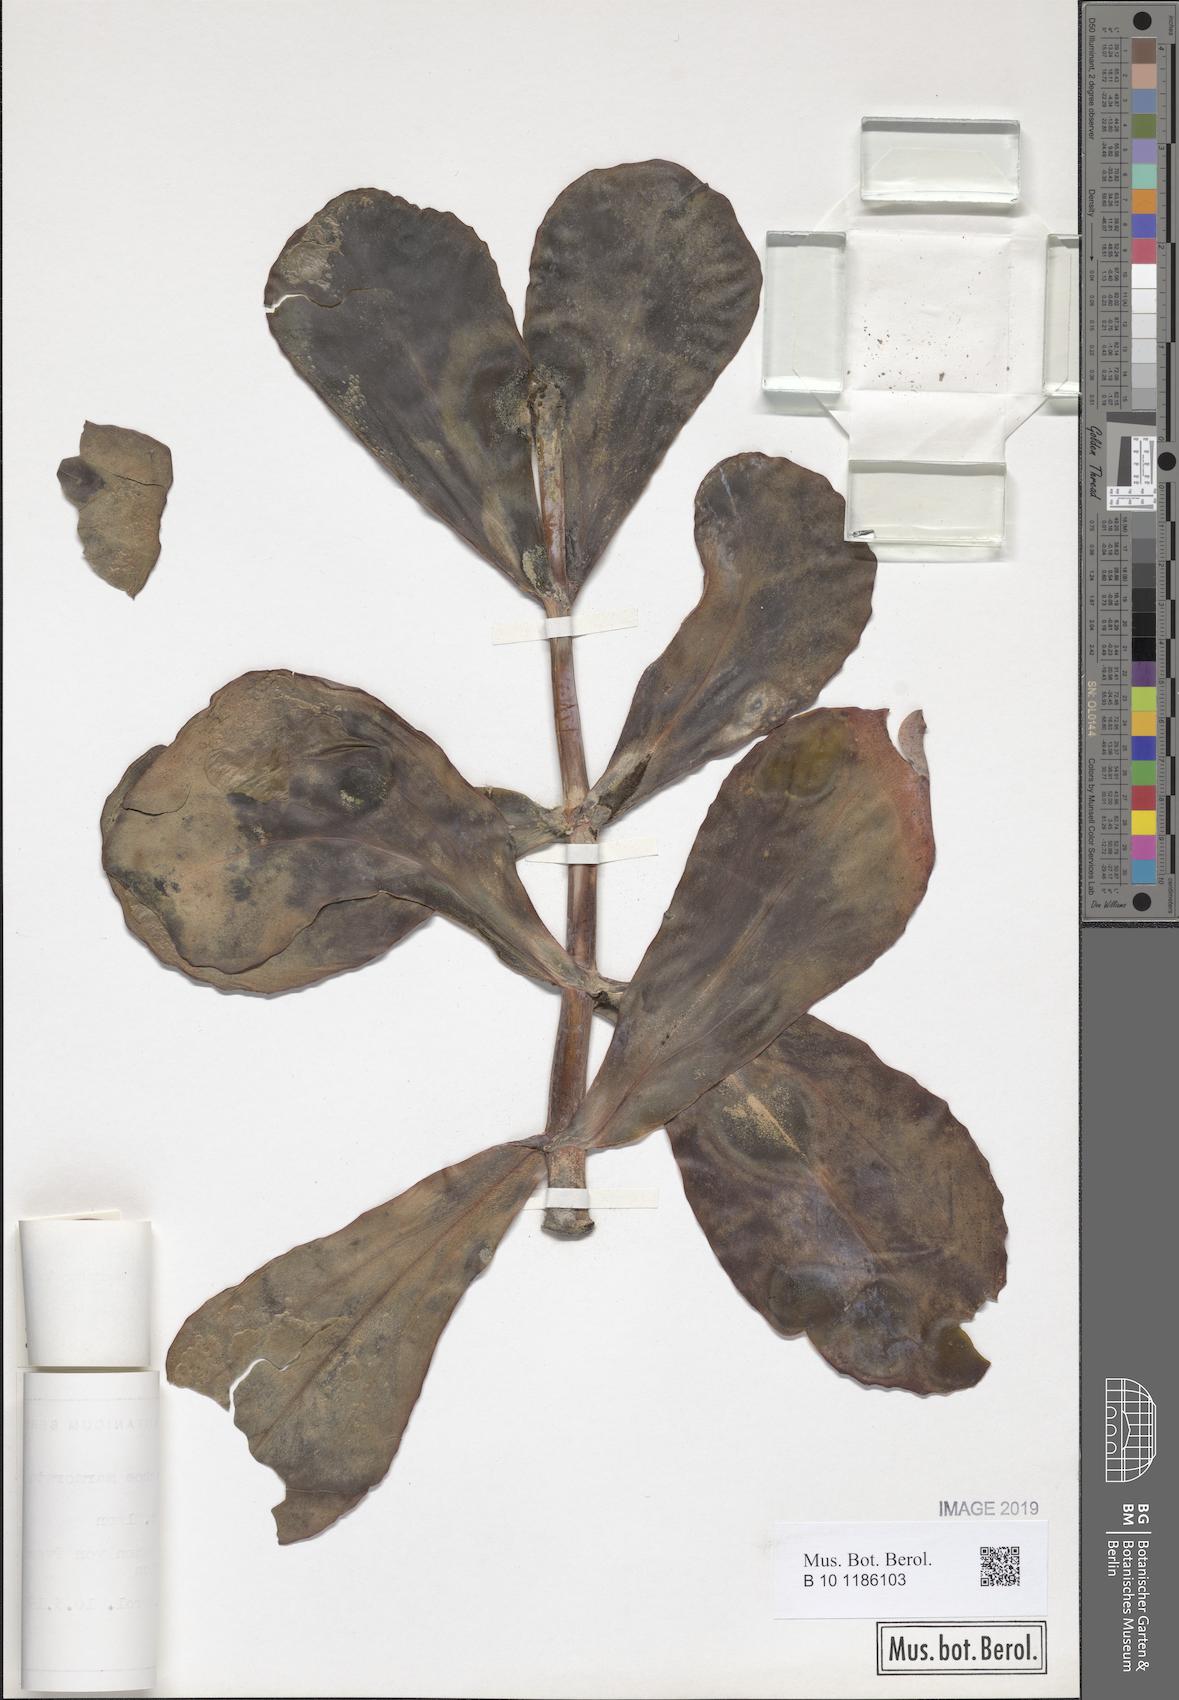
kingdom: Plantae
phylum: Tracheophyta
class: Magnoliopsida
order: Saxifragales
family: Crassulaceae
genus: Kalanchoe
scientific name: Kalanchoe marmorata
